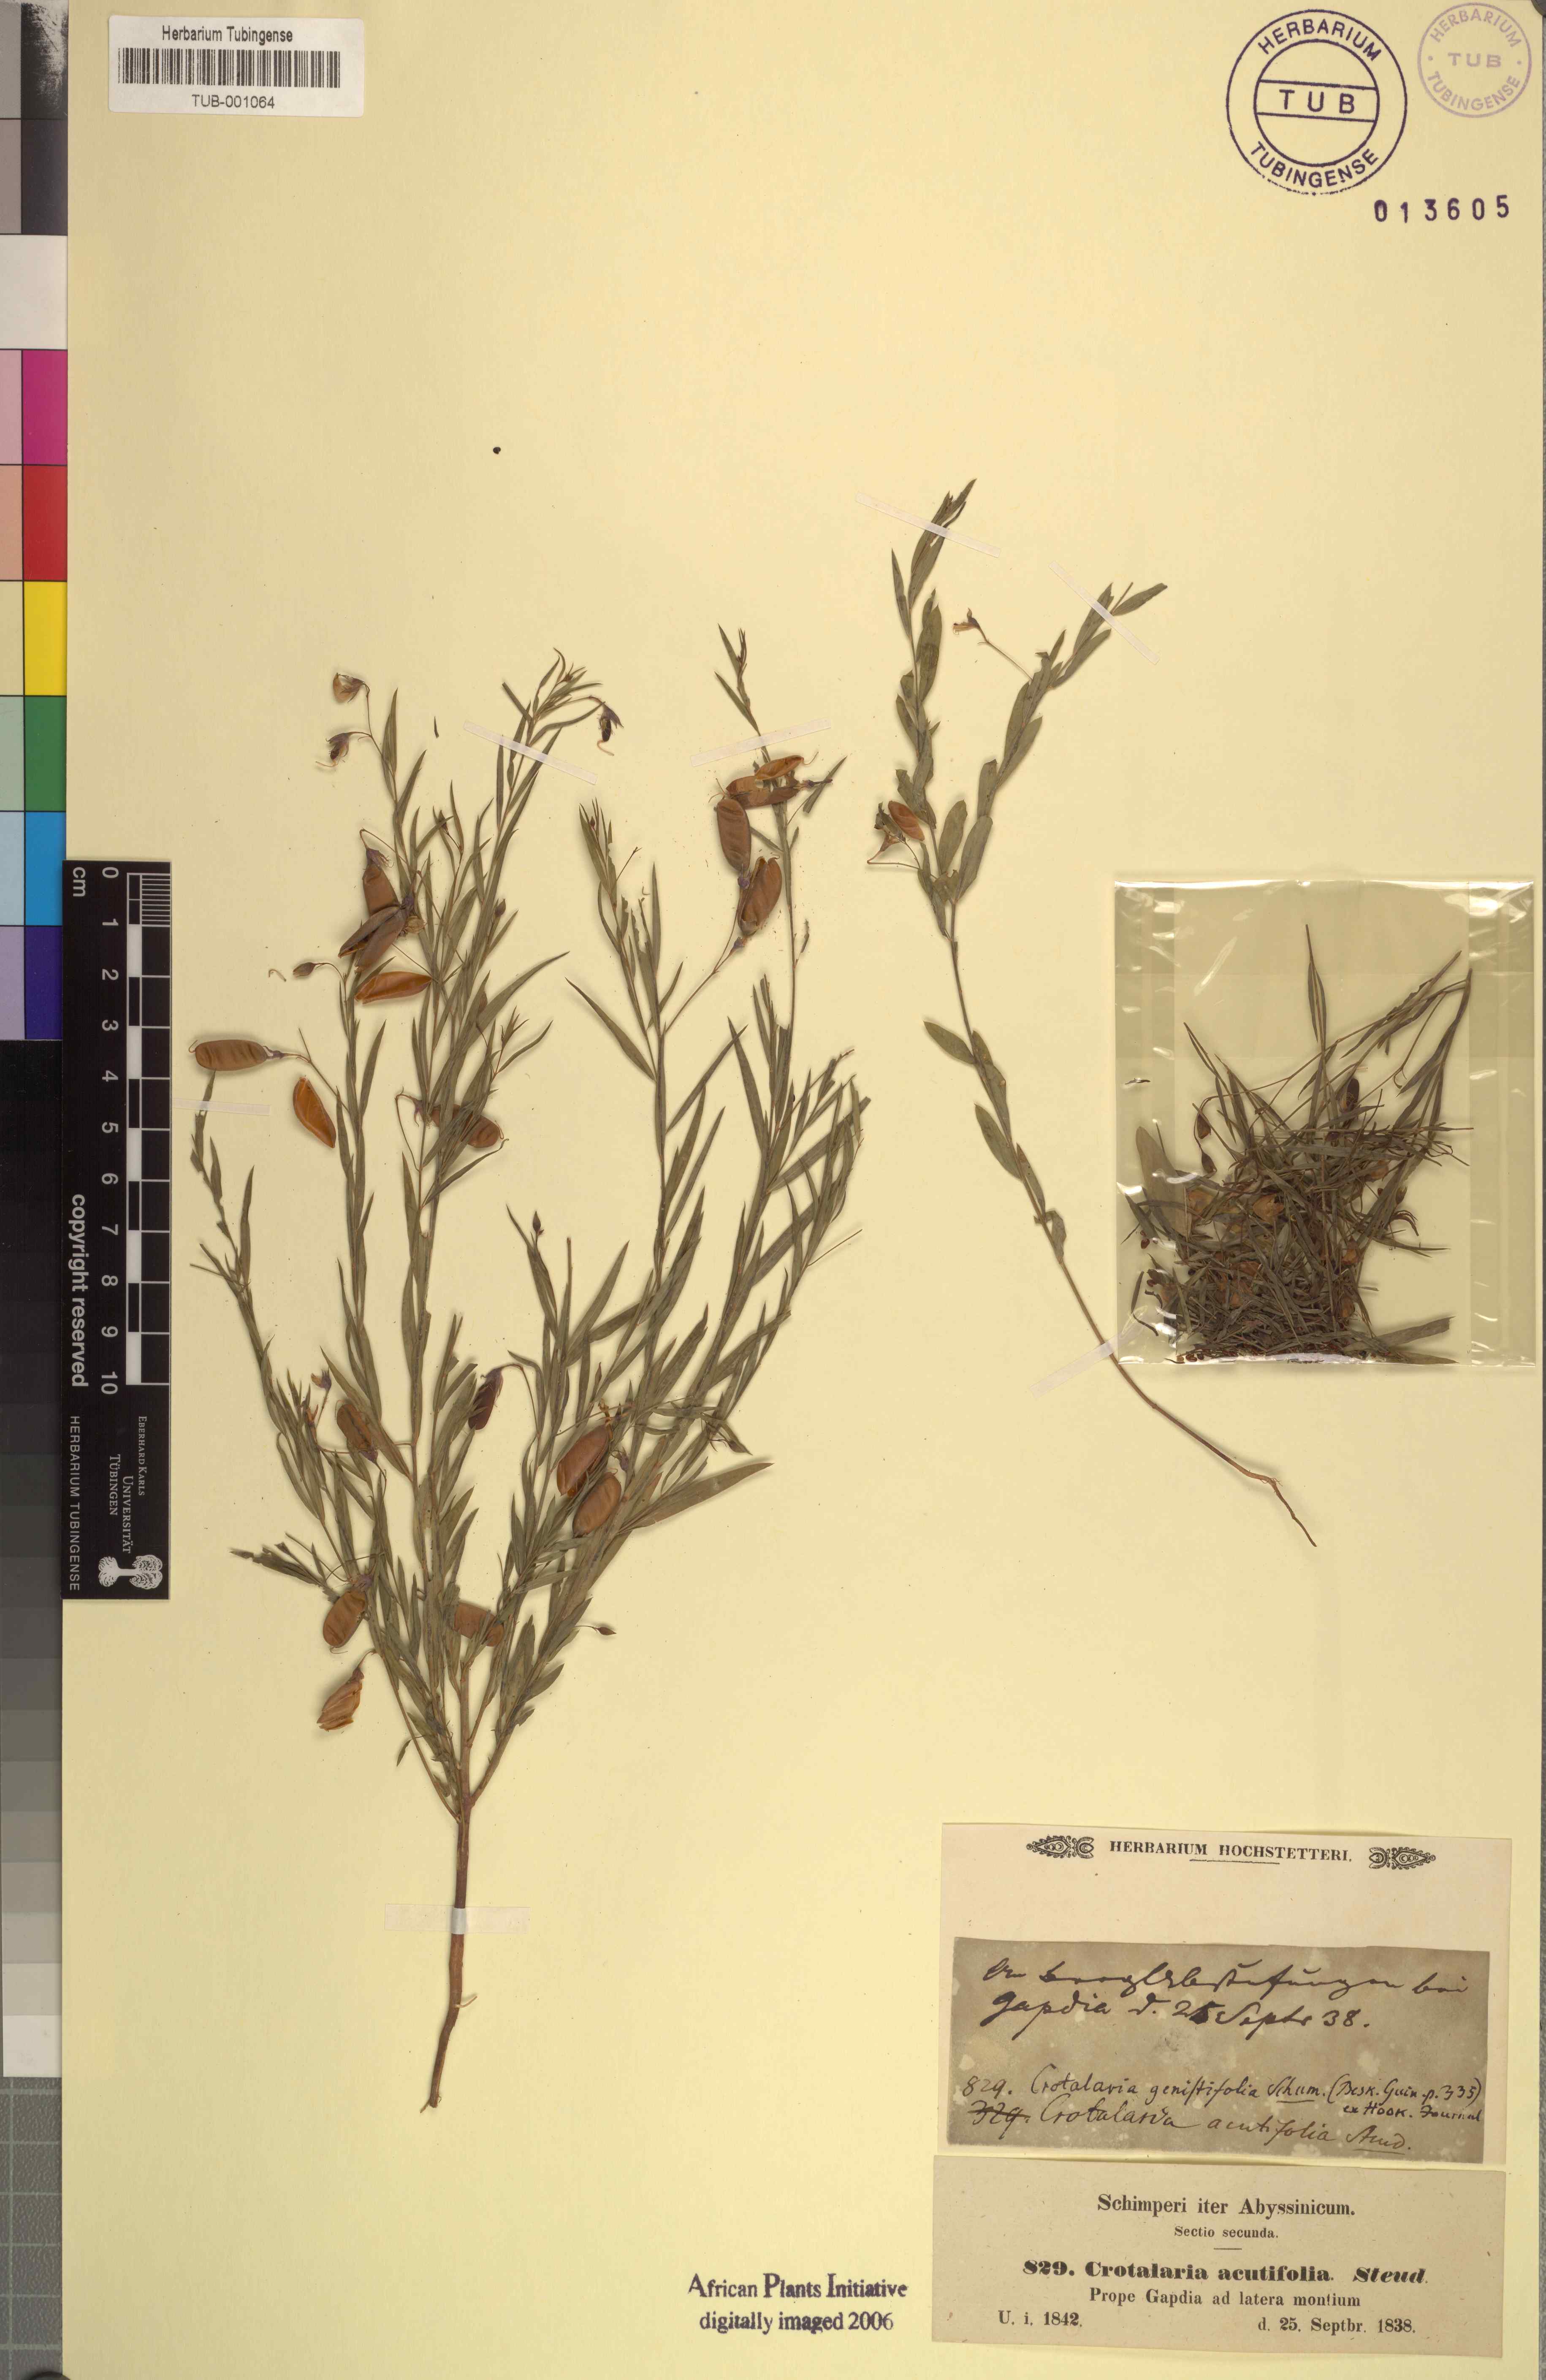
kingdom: Plantae
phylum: Tracheophyta
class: Magnoliopsida
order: Fabales
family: Fabaceae
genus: Crotalaria
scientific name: Crotalaria glauca
